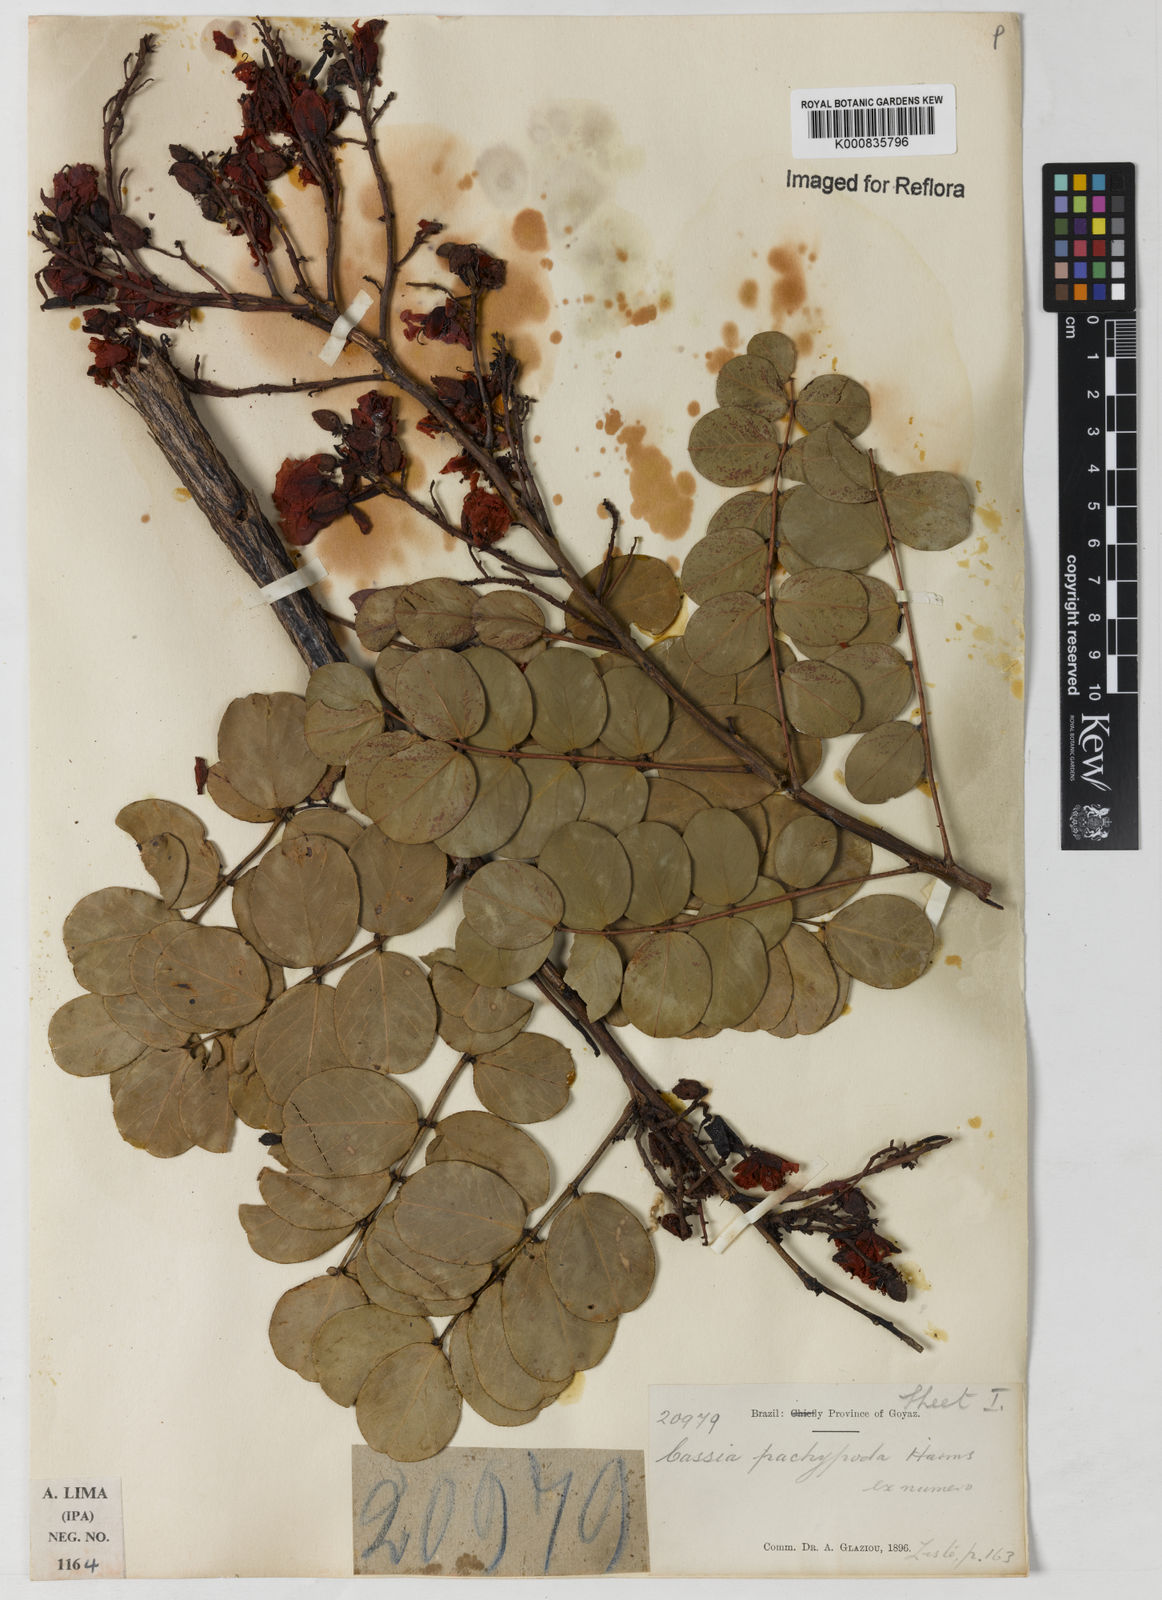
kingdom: Plantae
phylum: Tracheophyta
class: Magnoliopsida
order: Fabales
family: Fabaceae
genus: Chamaecrista
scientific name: Chamaecrista
